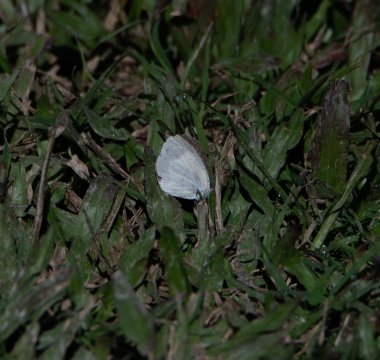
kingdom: Animalia
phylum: Arthropoda
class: Insecta
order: Lepidoptera
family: Pieridae
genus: Eurema
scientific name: Eurema daira
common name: Barred Yellow
